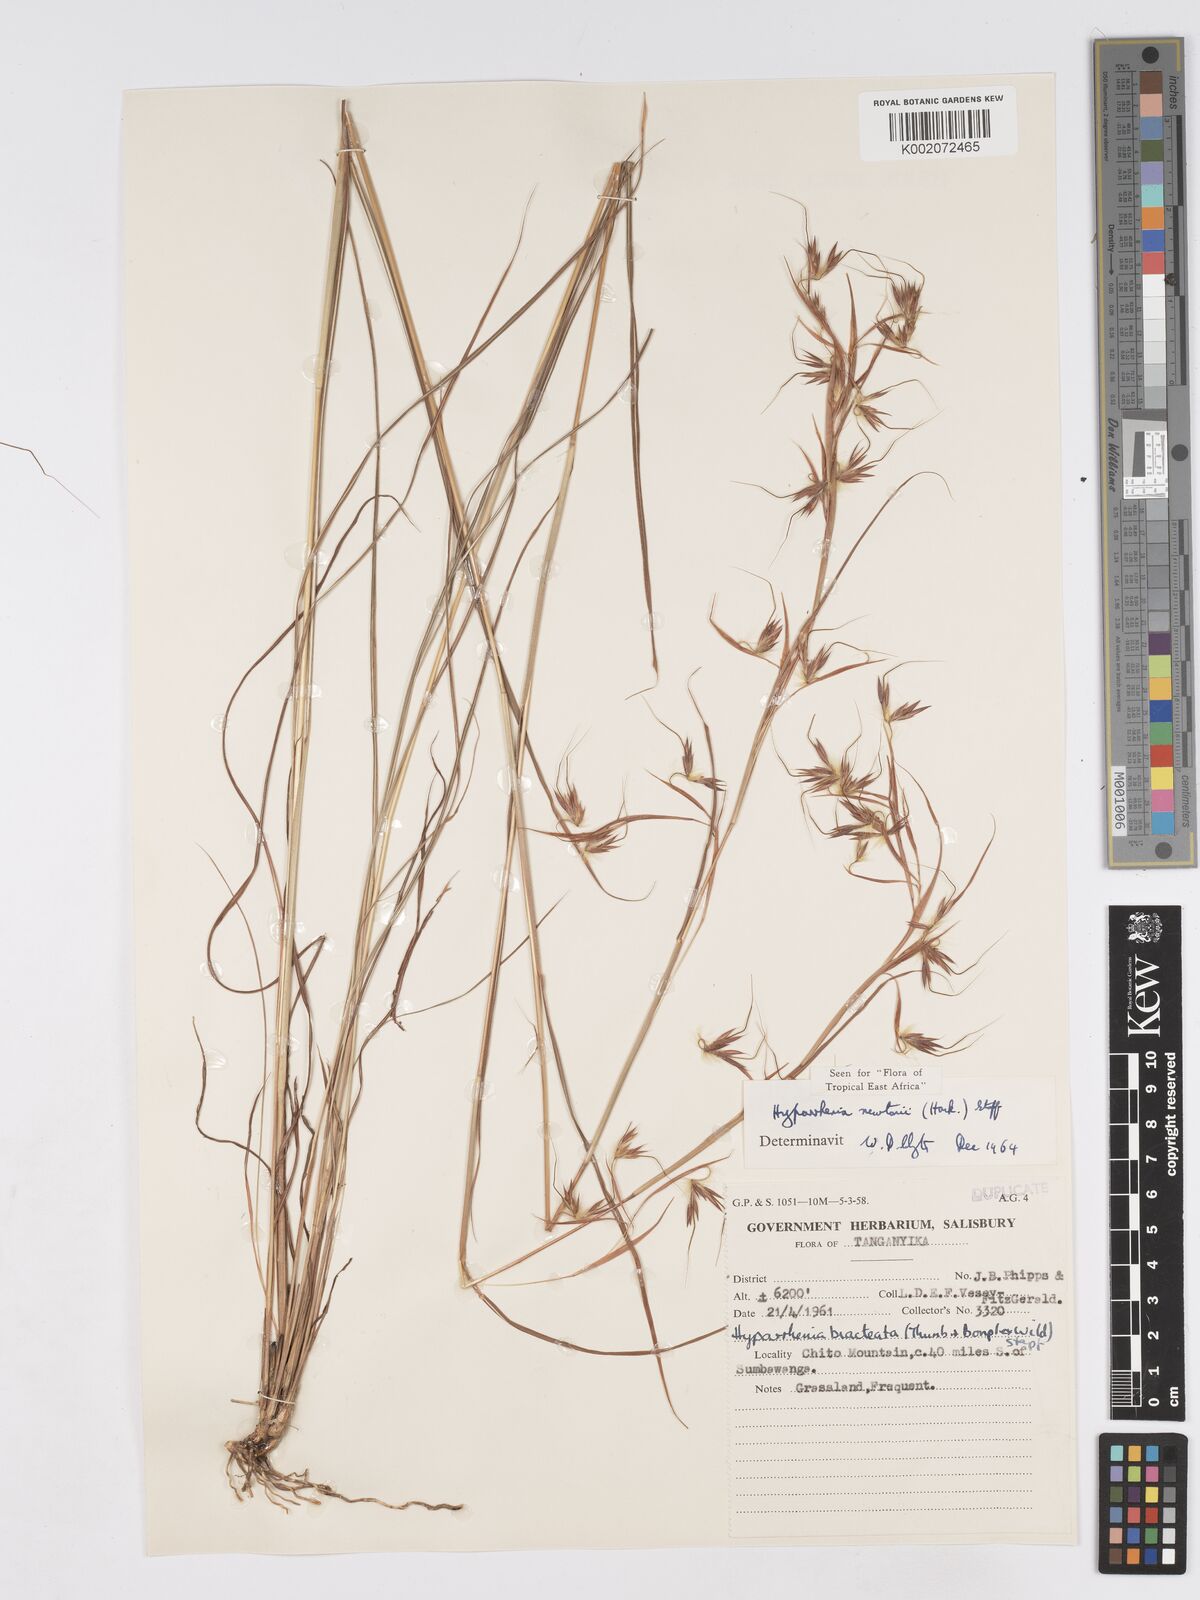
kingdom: Plantae
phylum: Tracheophyta
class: Liliopsida
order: Poales
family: Poaceae
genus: Hyparrhenia
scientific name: Hyparrhenia newtonii
